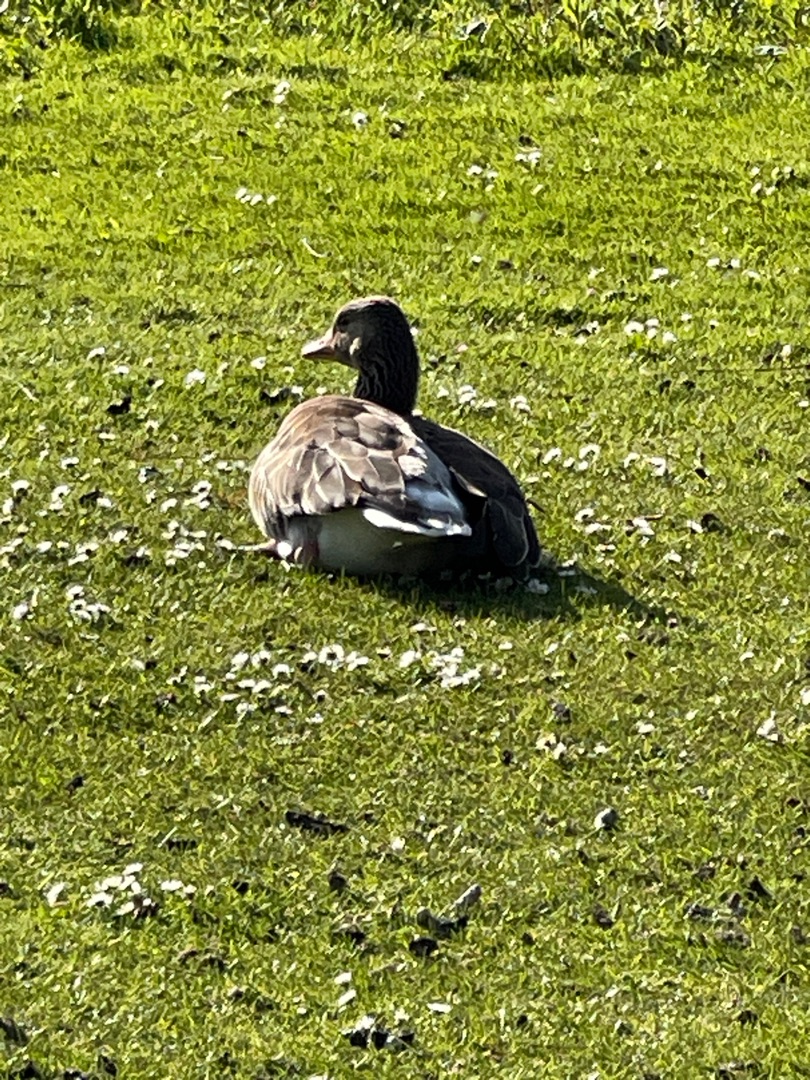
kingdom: Animalia
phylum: Chordata
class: Aves
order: Anseriformes
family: Anatidae
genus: Anser
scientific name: Anser anser
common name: Grågås
